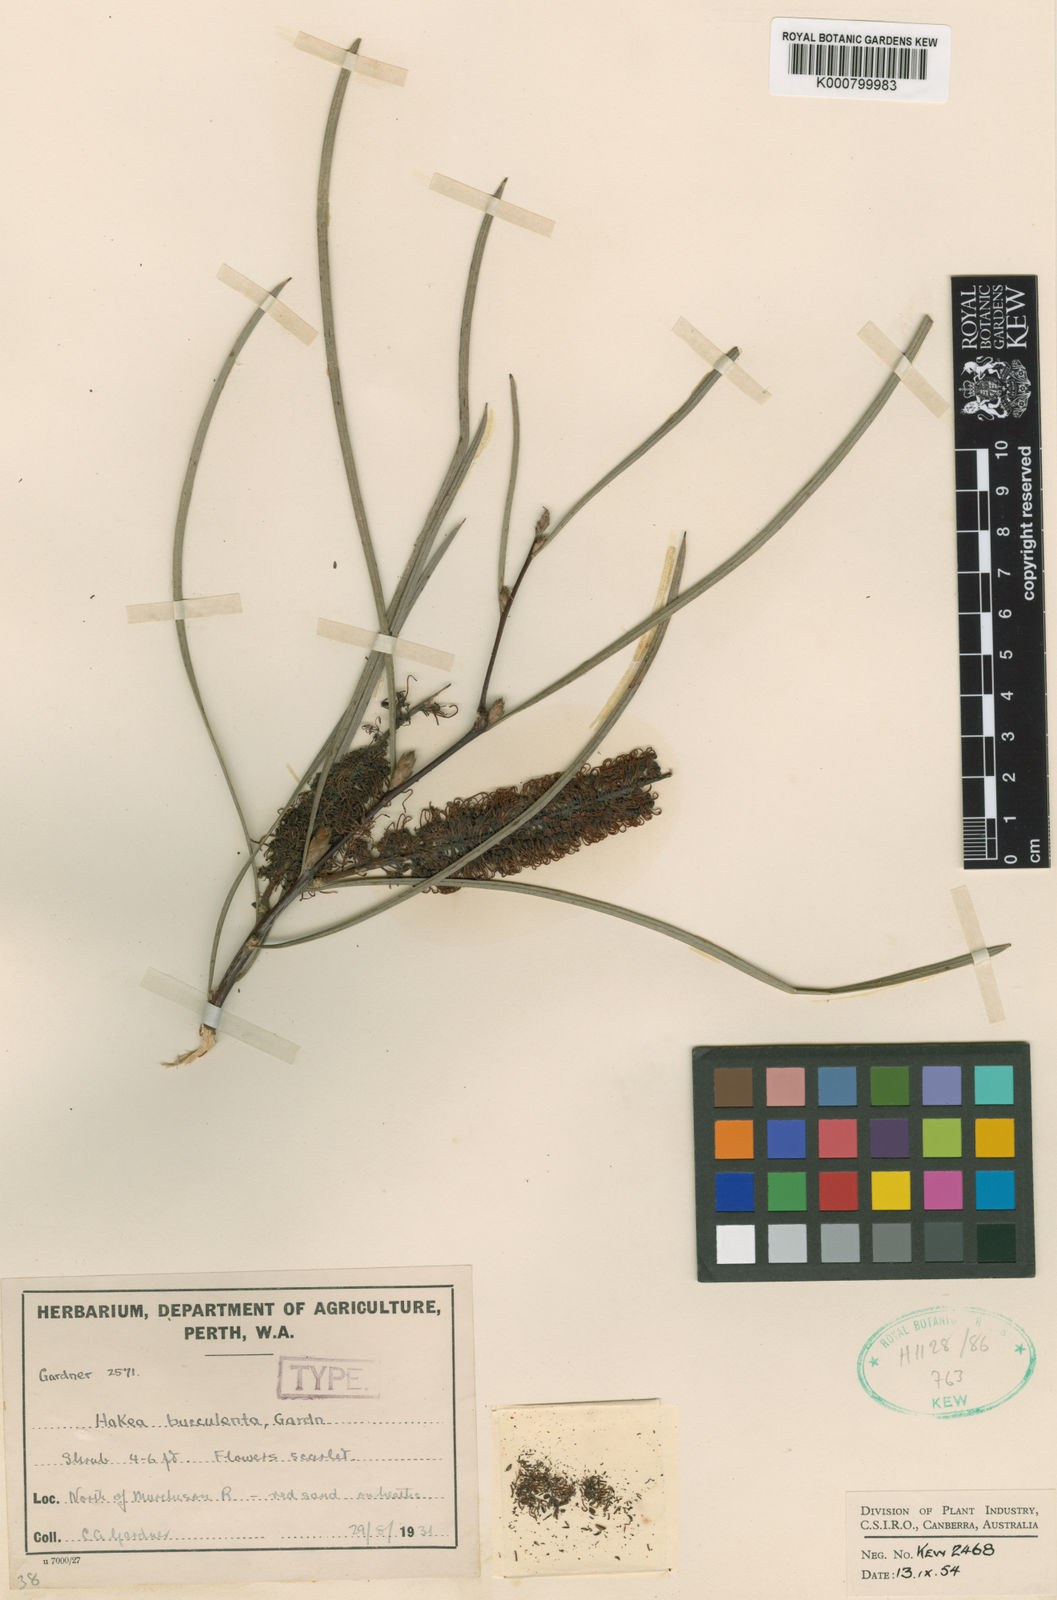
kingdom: Plantae
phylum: Tracheophyta
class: Magnoliopsida
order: Proteales
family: Proteaceae
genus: Hakea
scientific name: Hakea bucculenta
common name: Red pokers
